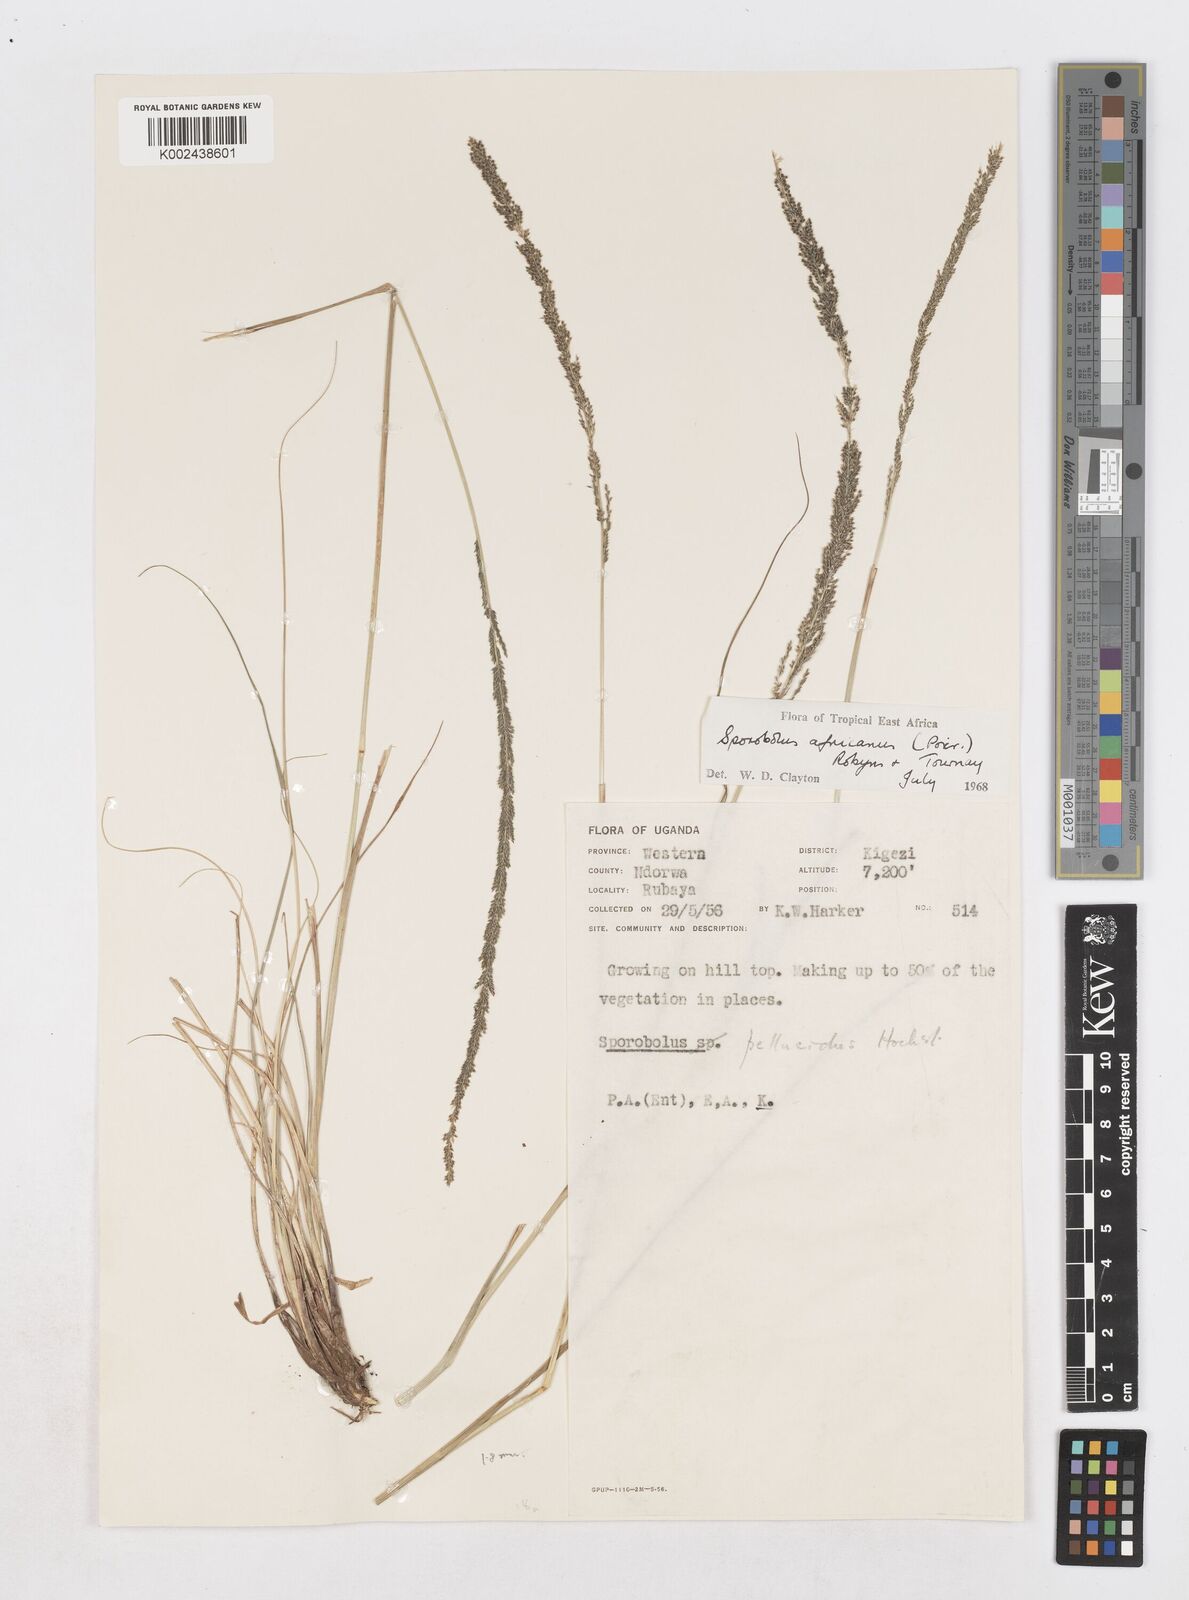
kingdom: Plantae
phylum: Tracheophyta
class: Liliopsida
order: Poales
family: Poaceae
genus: Sporobolus
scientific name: Sporobolus africanus
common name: African dropseed
